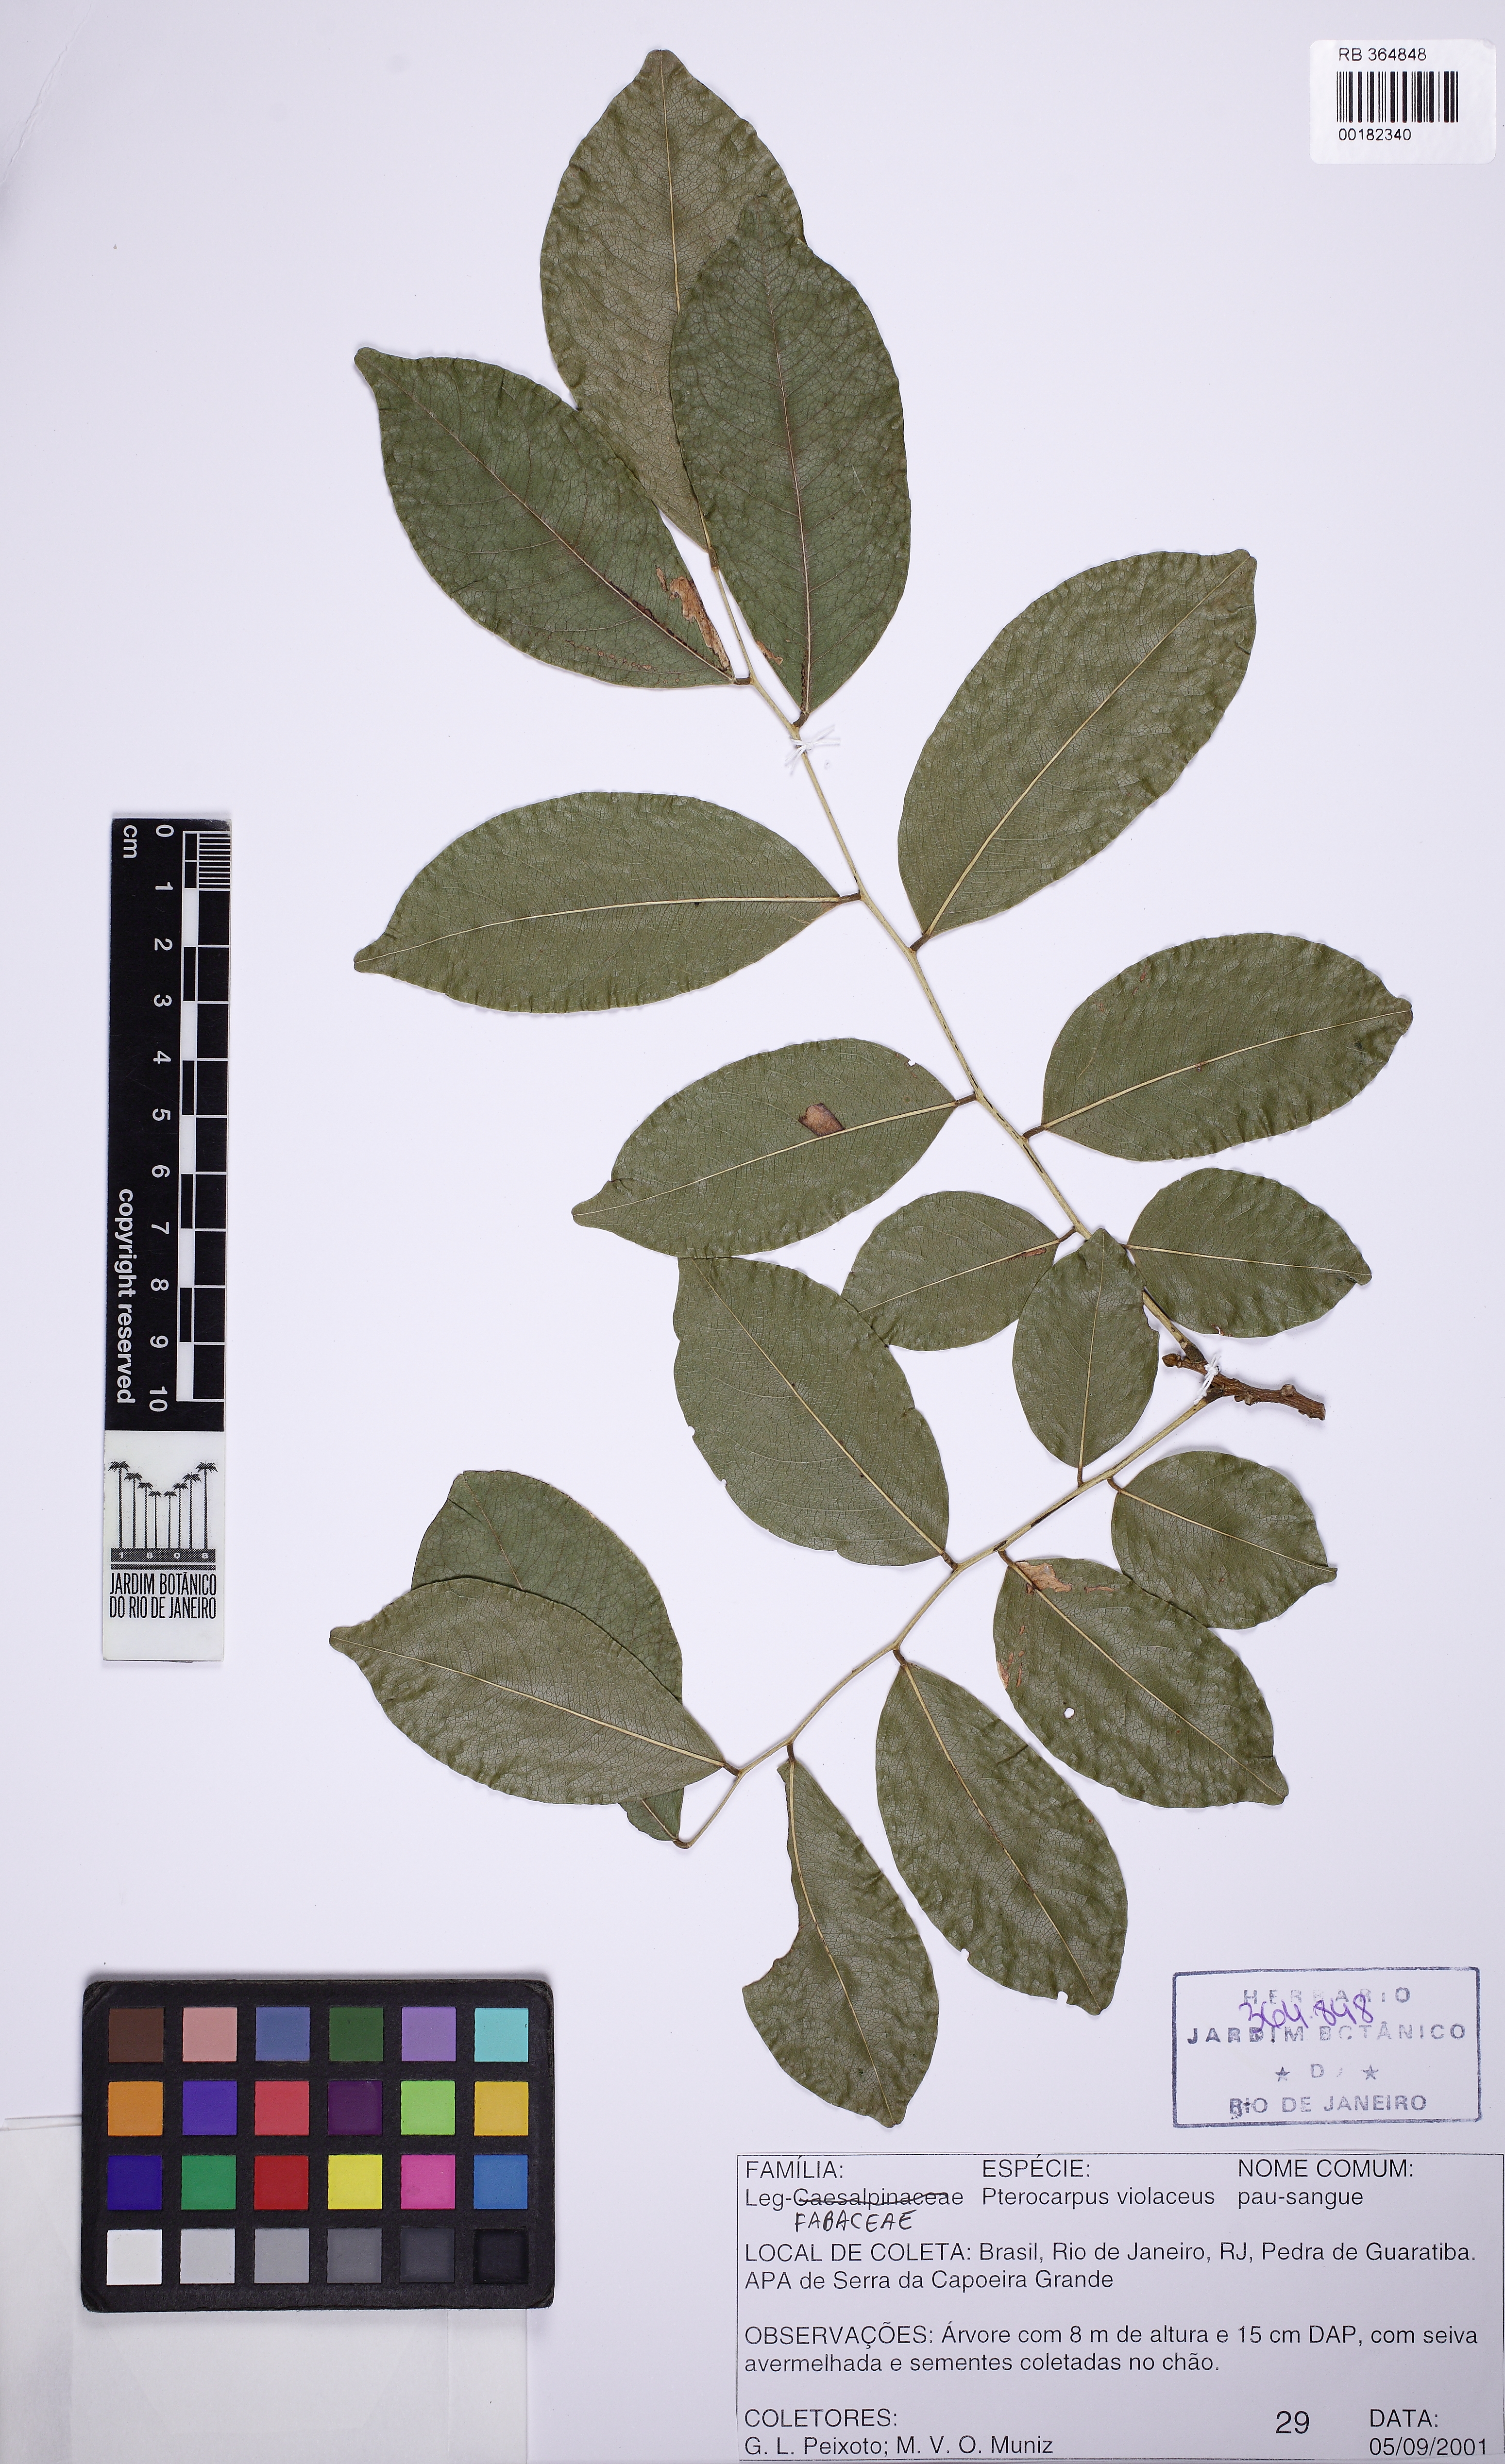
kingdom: Plantae
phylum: Tracheophyta
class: Magnoliopsida
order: Fabales
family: Fabaceae
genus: Pterocarpus
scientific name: Pterocarpus rohrii
